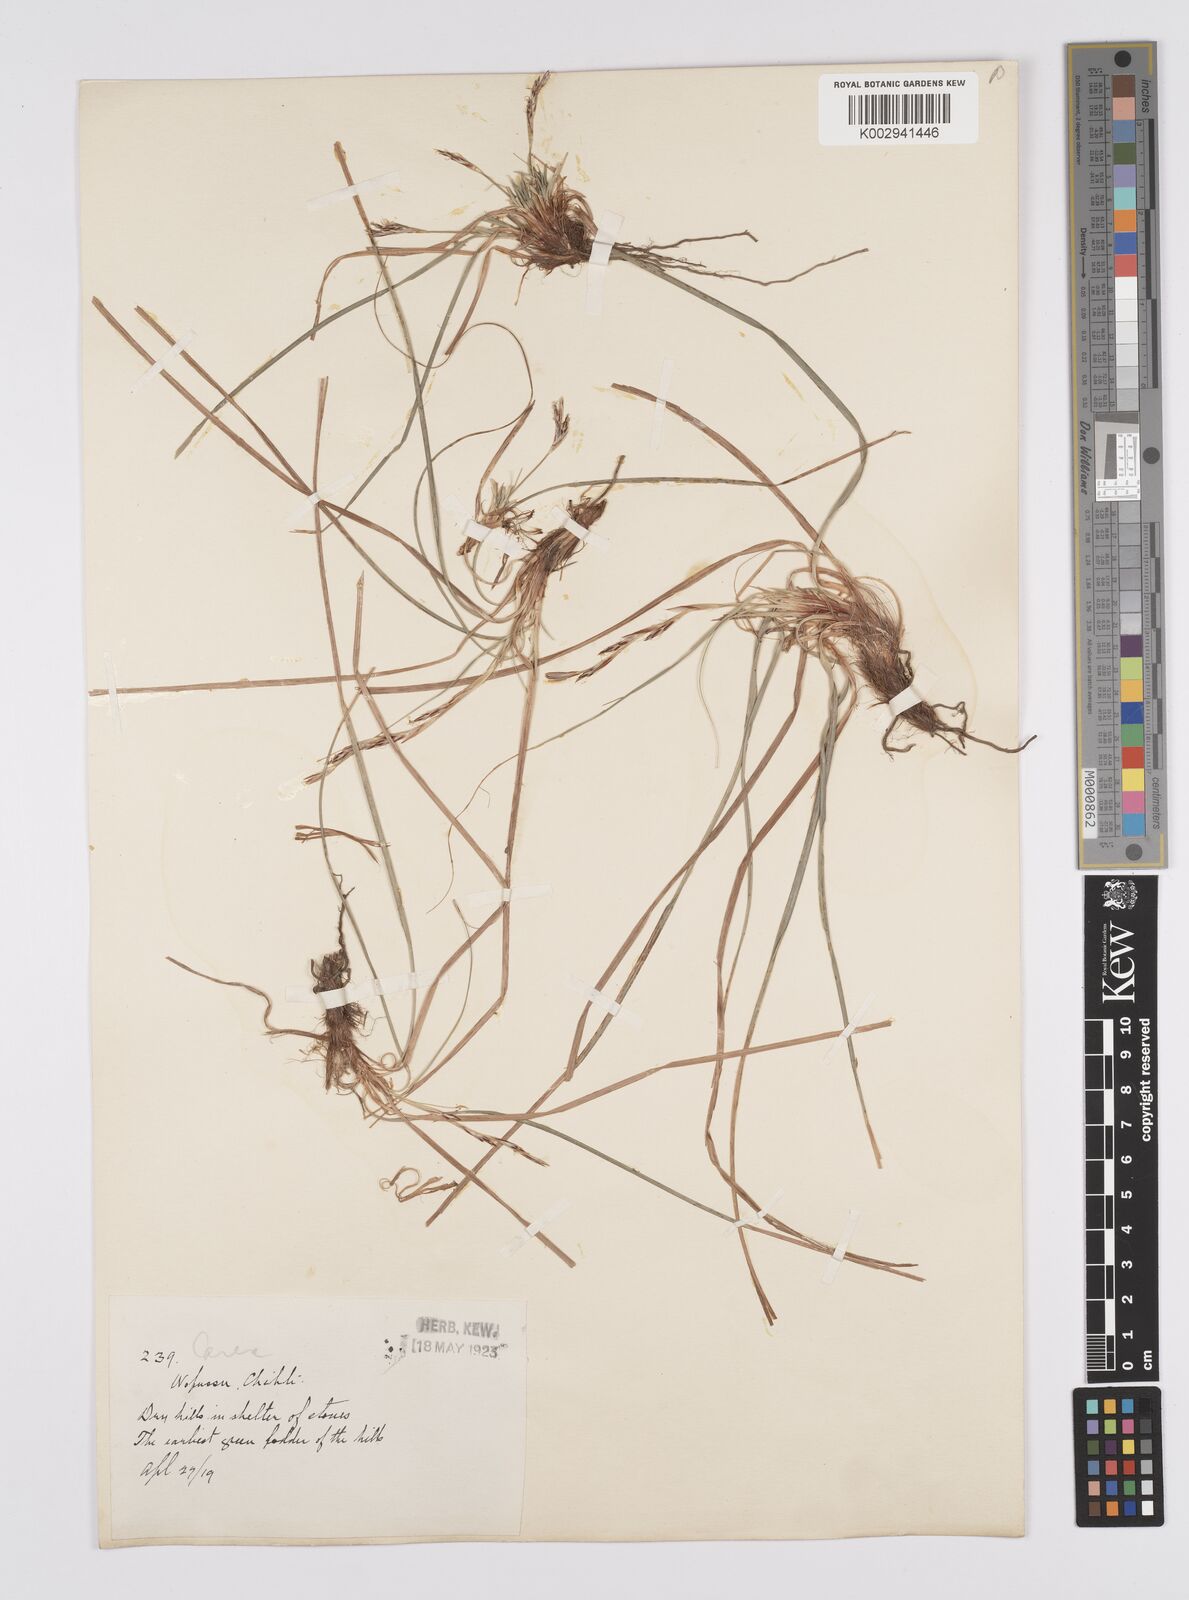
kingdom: Plantae
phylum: Tracheophyta
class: Liliopsida
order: Poales
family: Cyperaceae
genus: Carex
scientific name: Carex lanceolata
